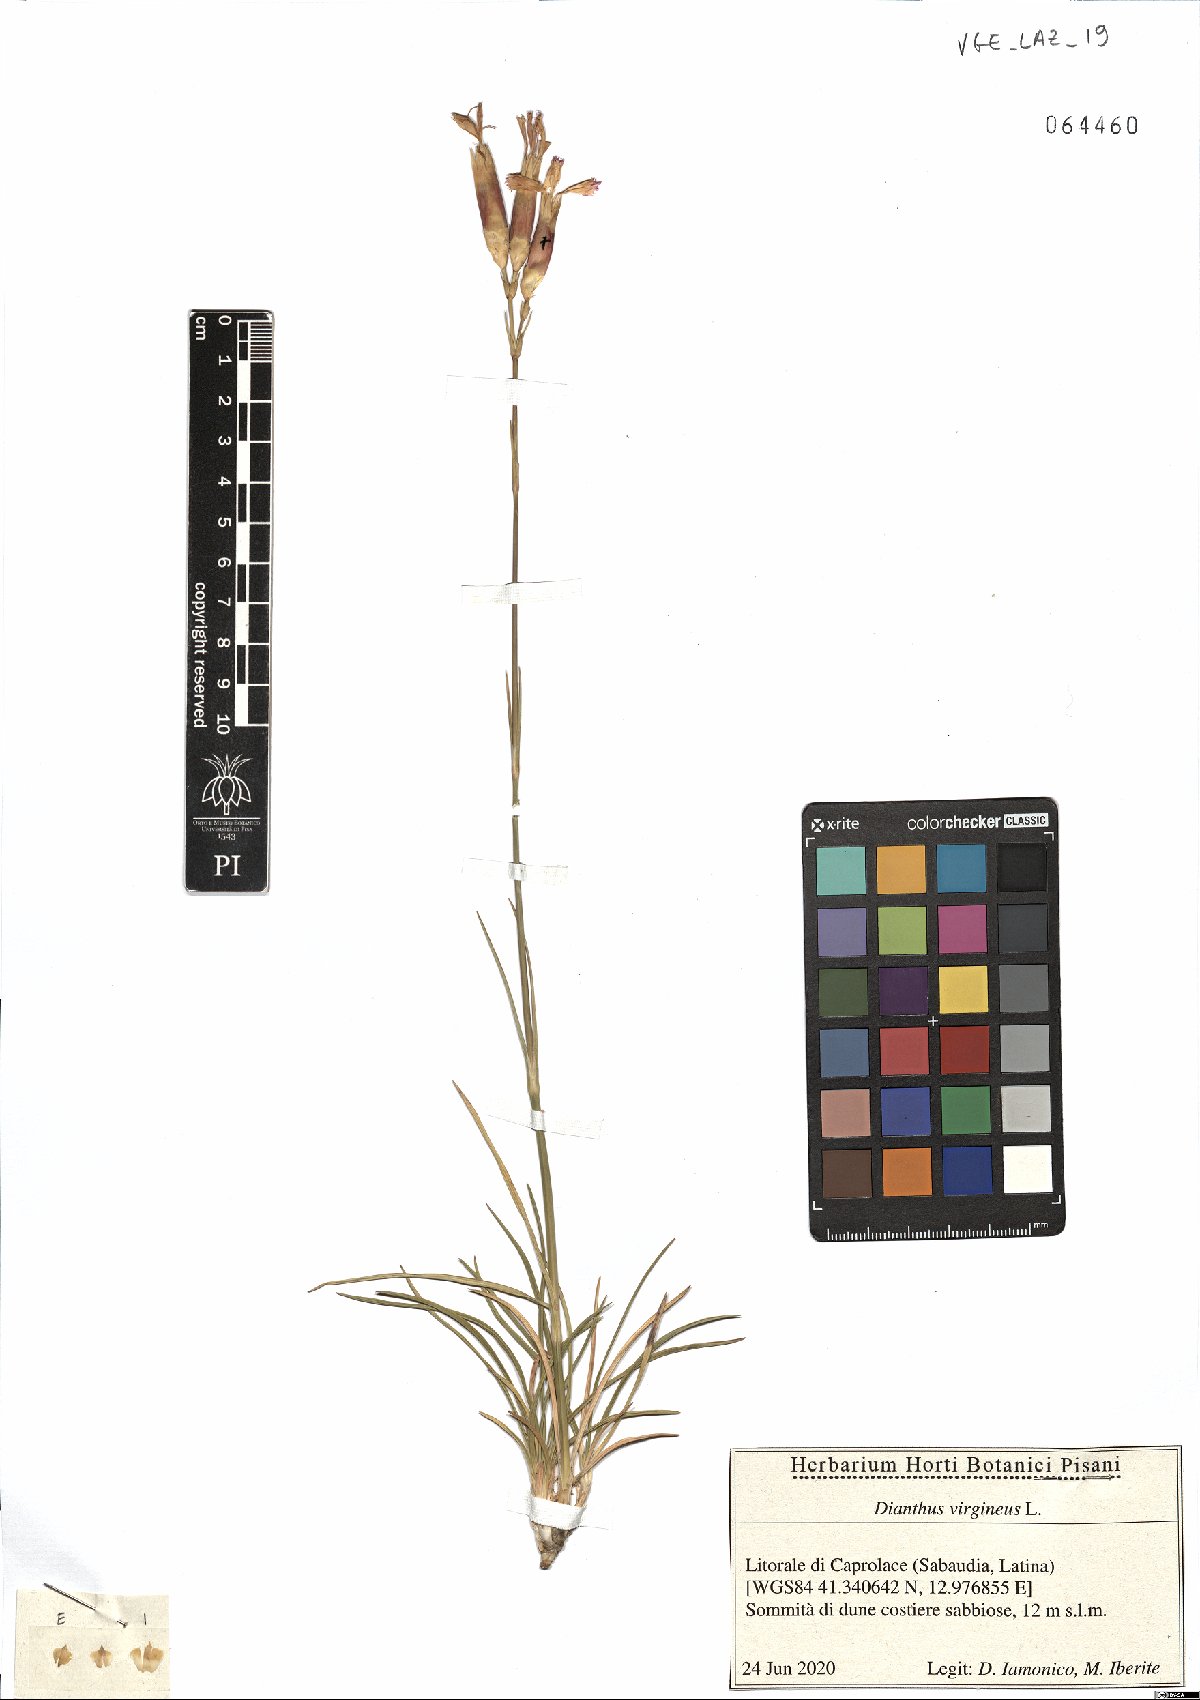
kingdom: Plantae
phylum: Tracheophyta
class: Magnoliopsida
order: Caryophyllales
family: Caryophyllaceae
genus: Dianthus
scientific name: Dianthus virgineus
